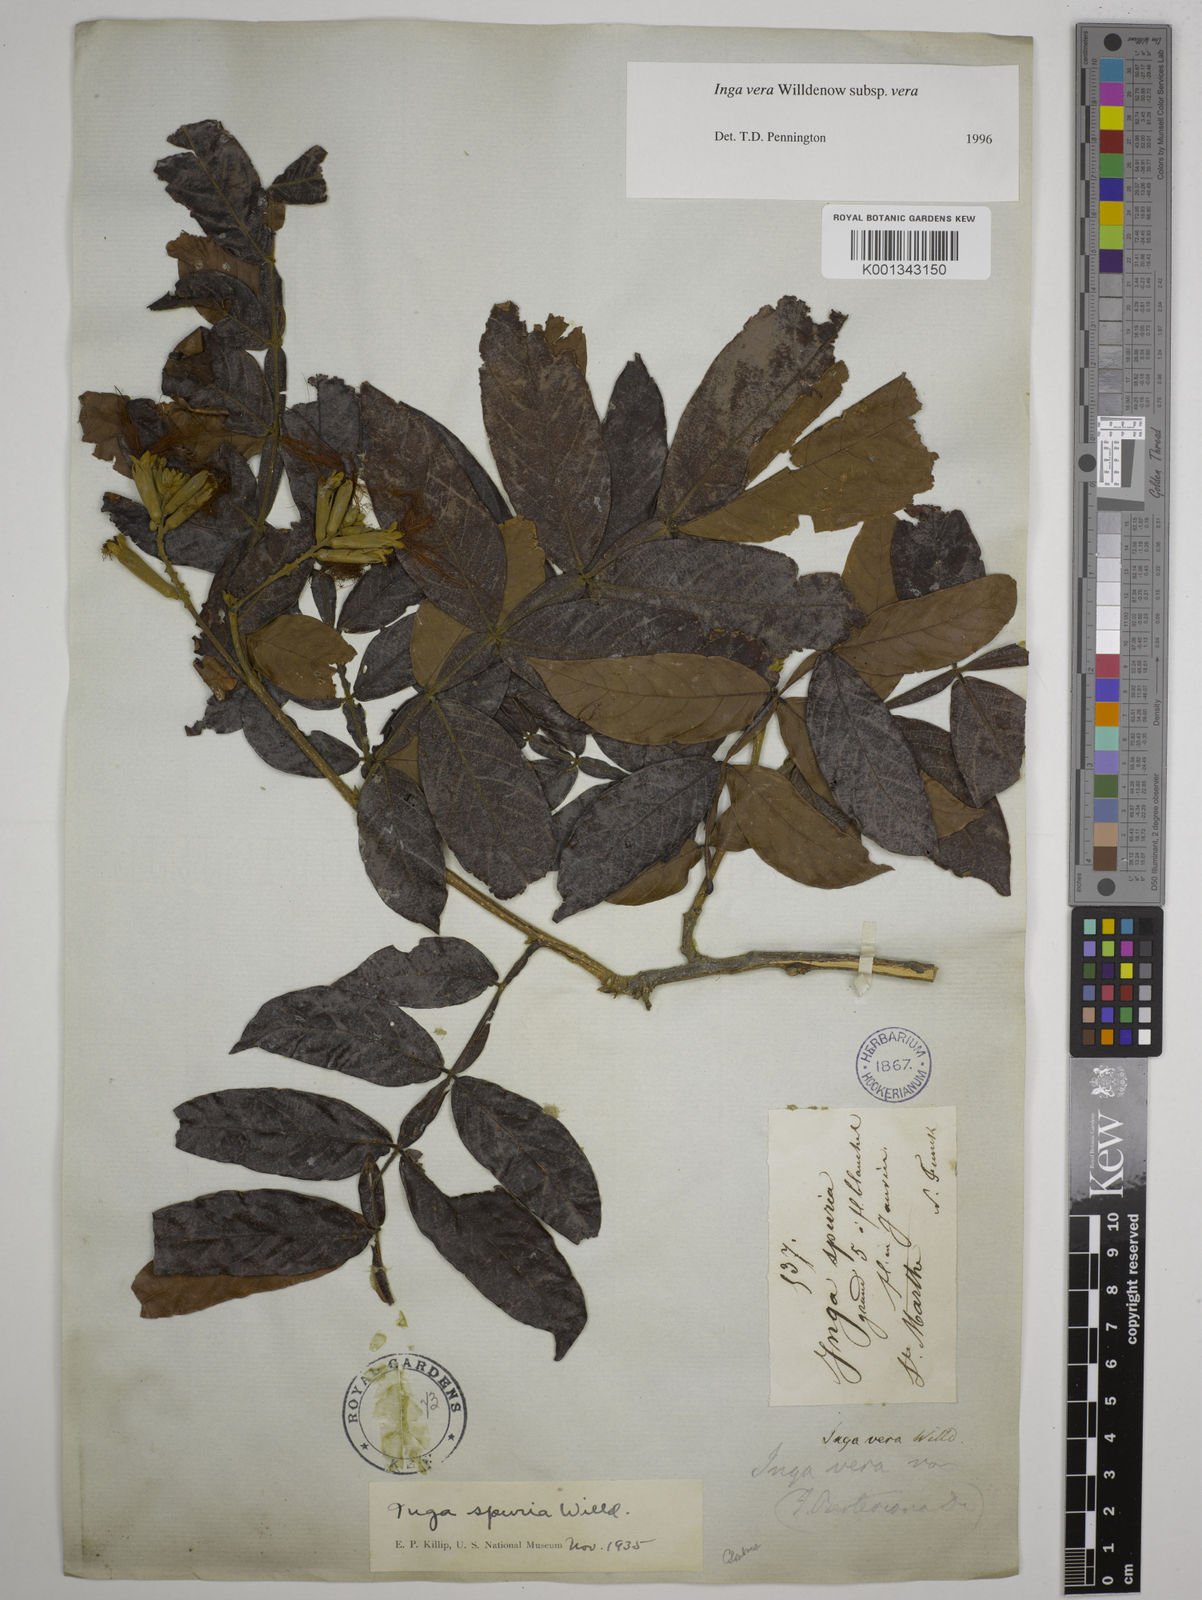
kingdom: Plantae
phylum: Tracheophyta
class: Magnoliopsida
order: Fabales
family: Fabaceae
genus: Inga
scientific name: Inga vera
